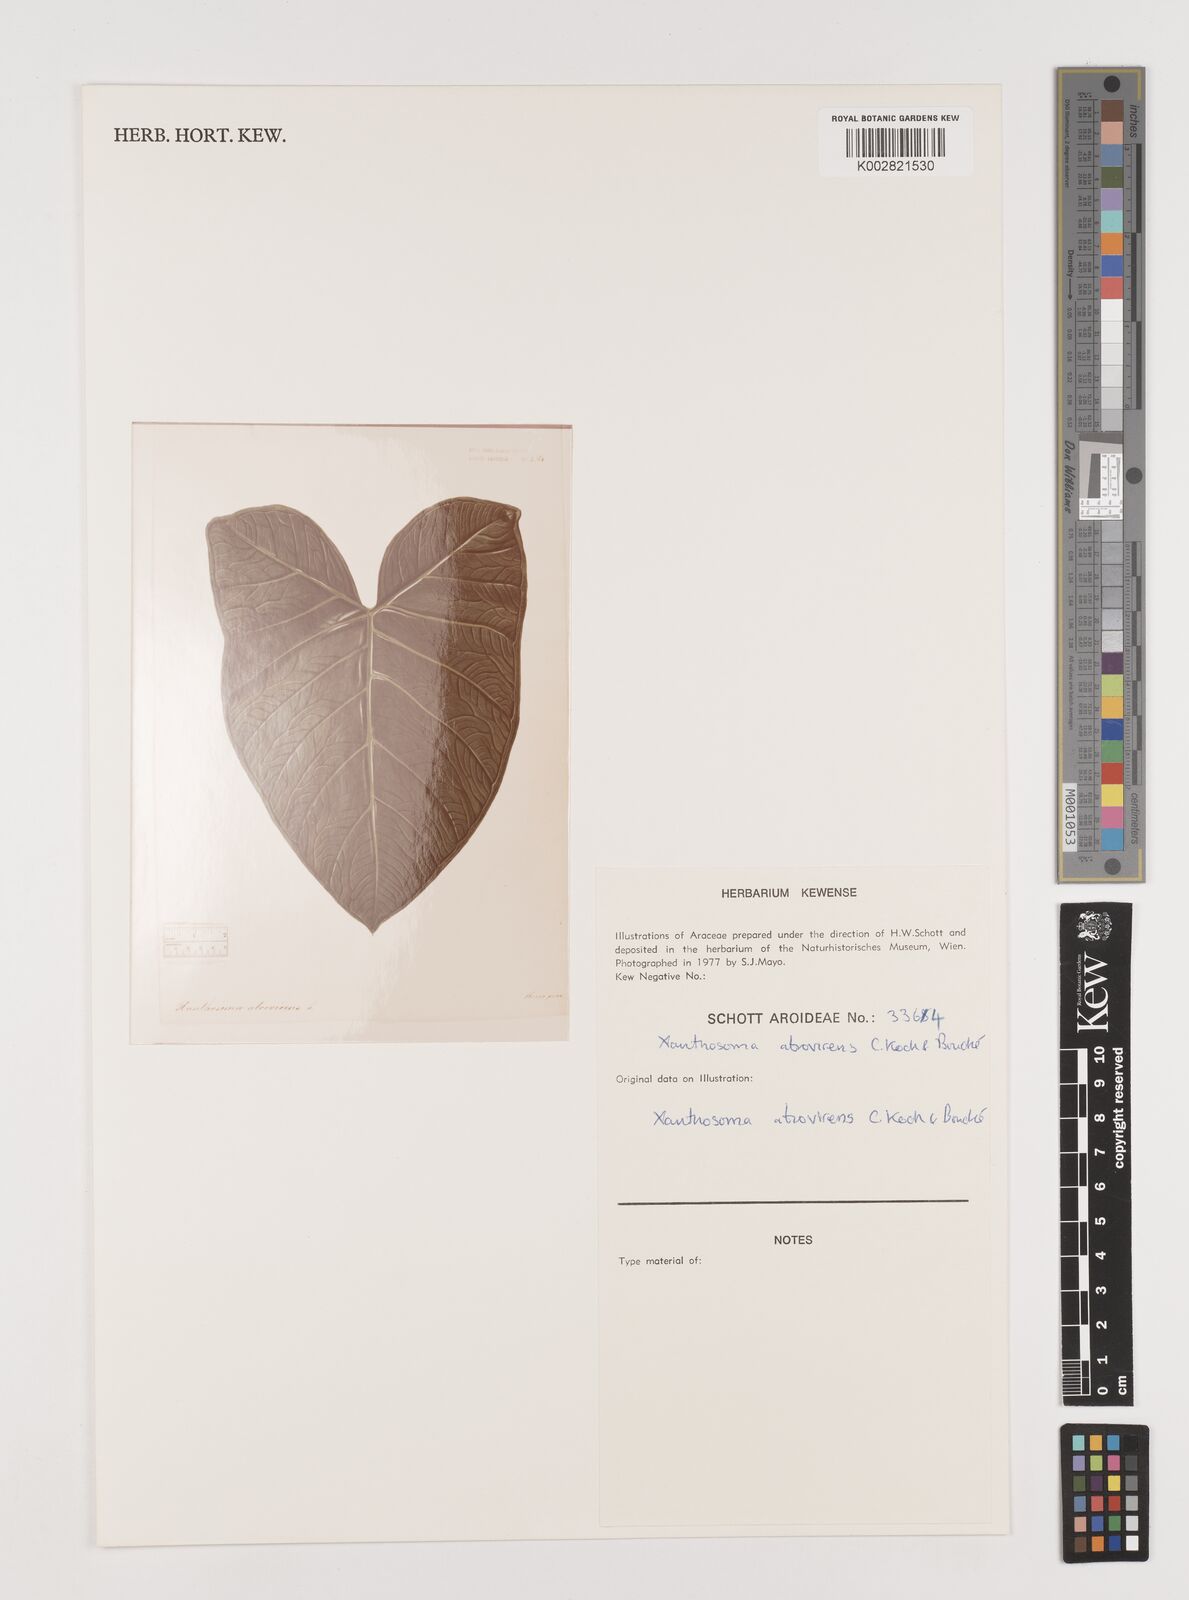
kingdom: Plantae
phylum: Tracheophyta
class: Liliopsida
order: Alismatales
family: Araceae
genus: Xanthosoma
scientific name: Xanthosoma sagittifolium
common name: Arrowleaf elephant's ear
